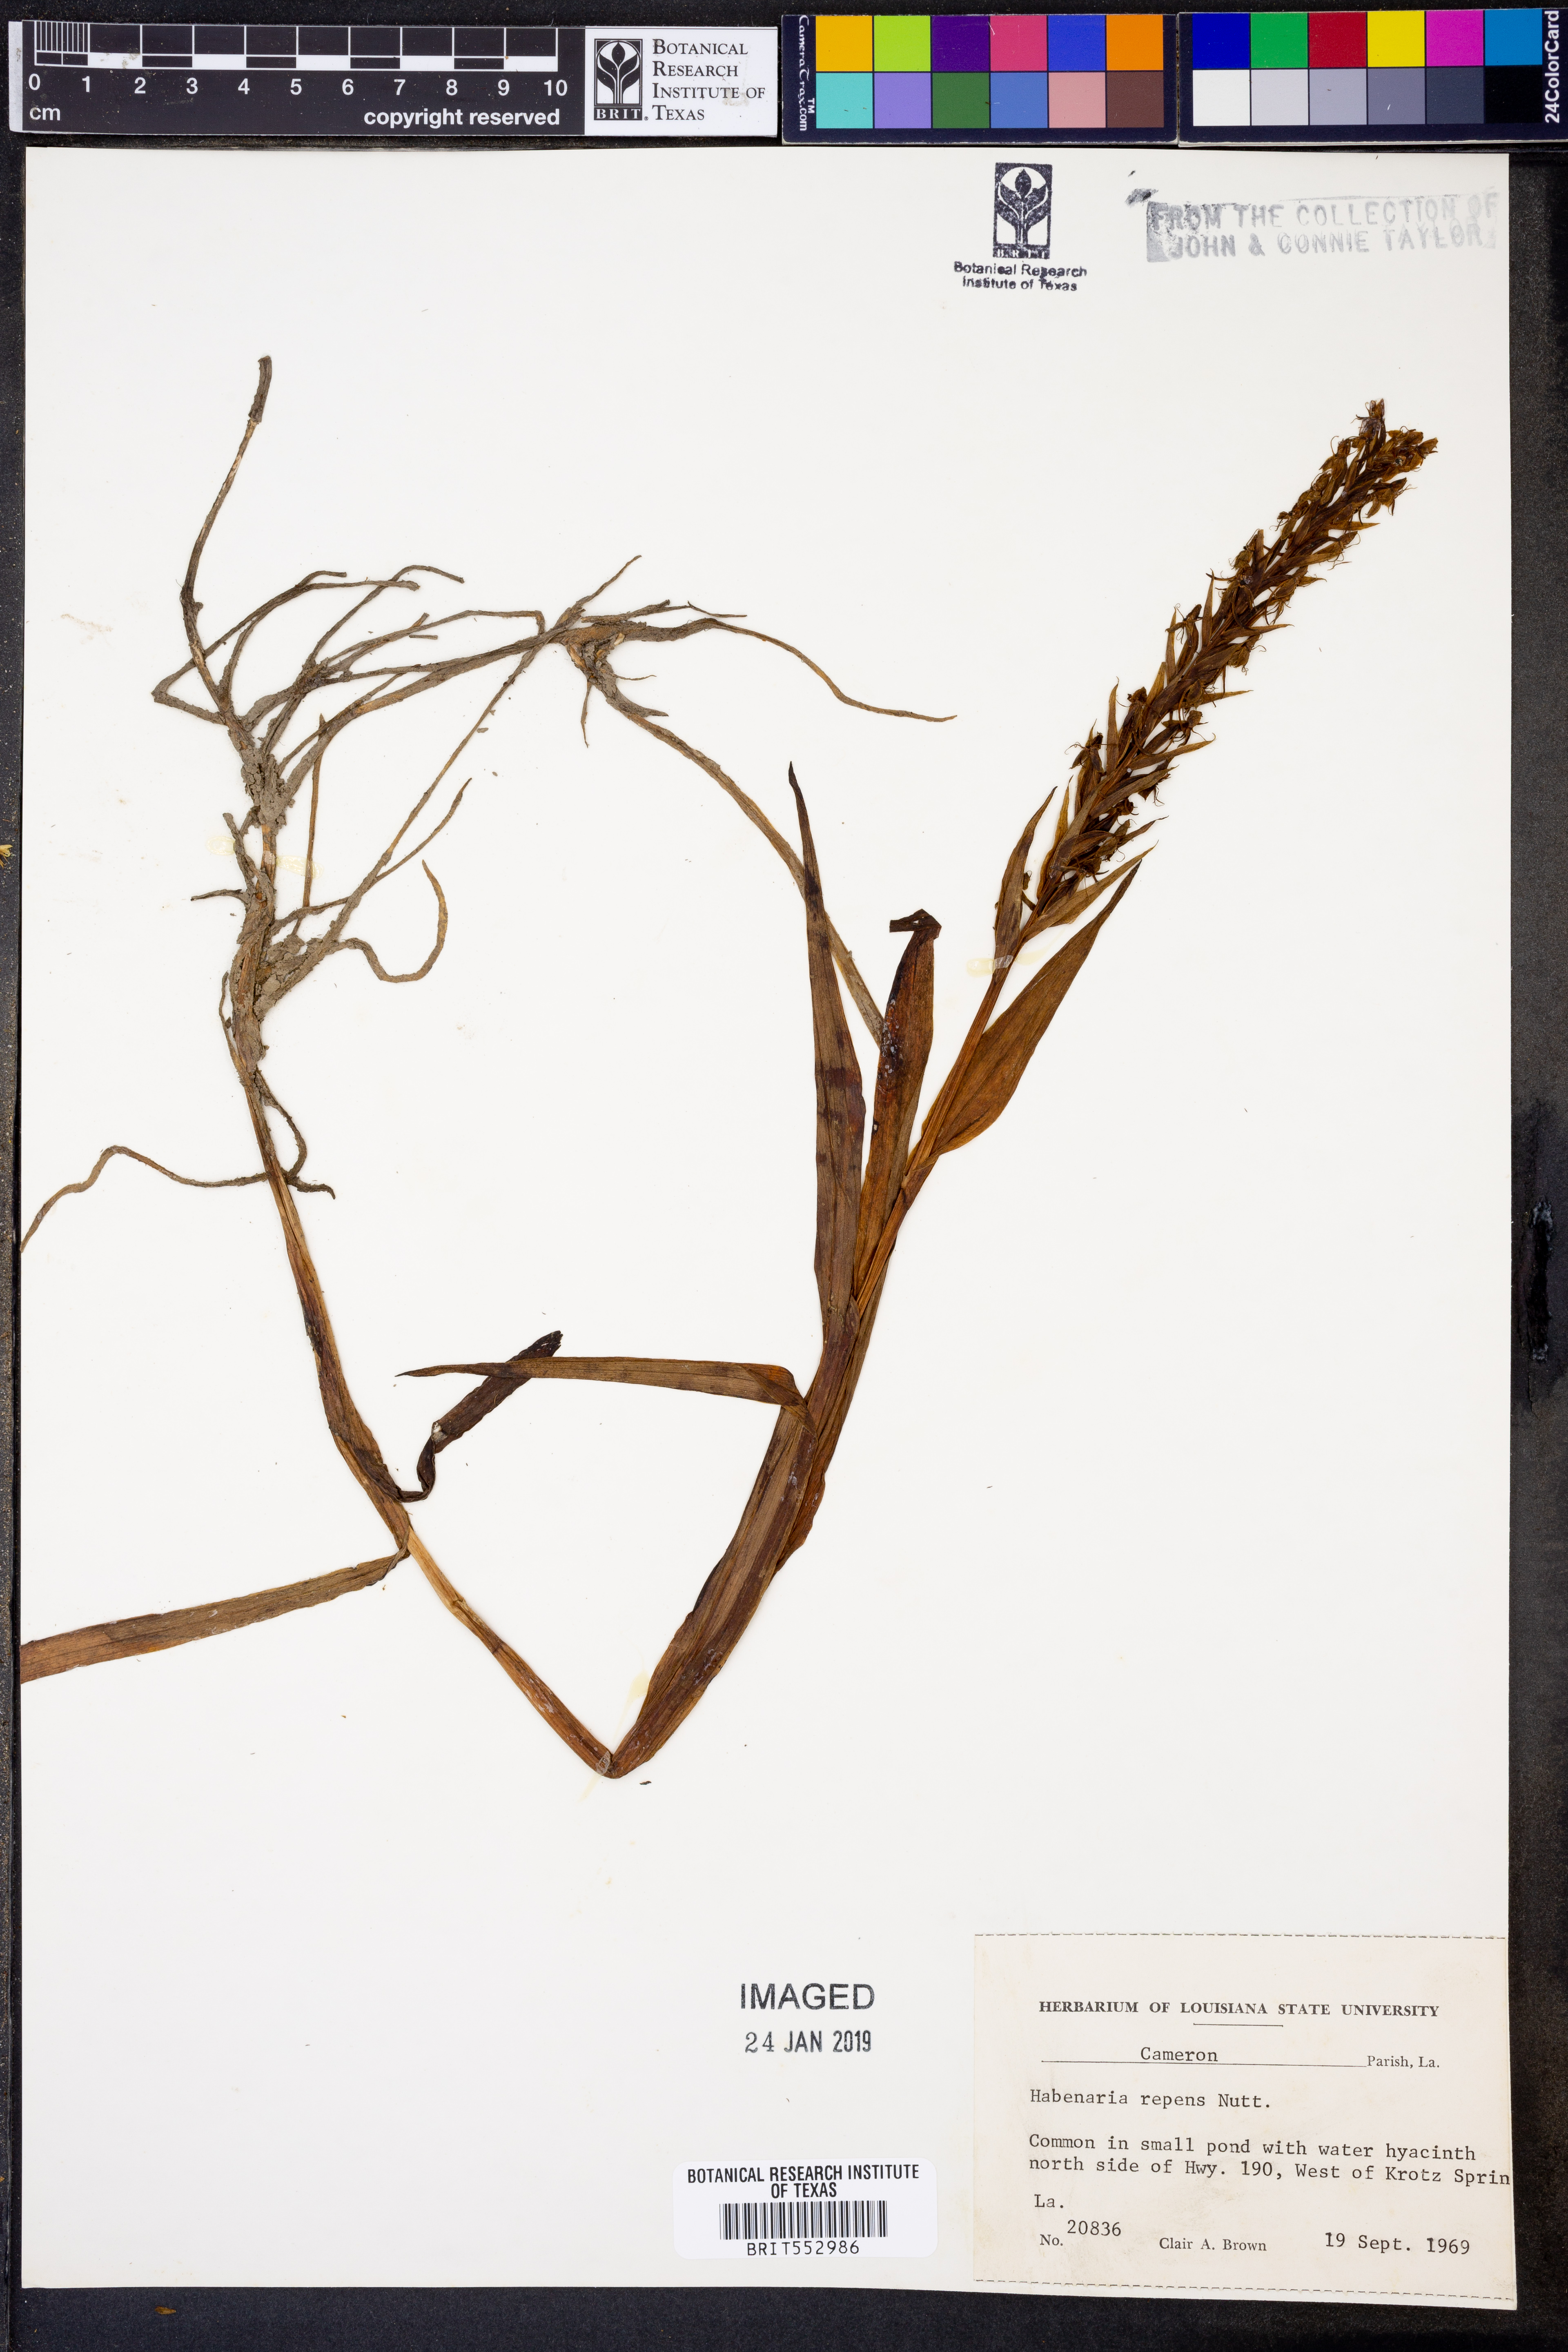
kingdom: Plantae
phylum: Tracheophyta
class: Liliopsida
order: Asparagales
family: Orchidaceae
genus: Habenaria
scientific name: Habenaria repens
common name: Water orchid
